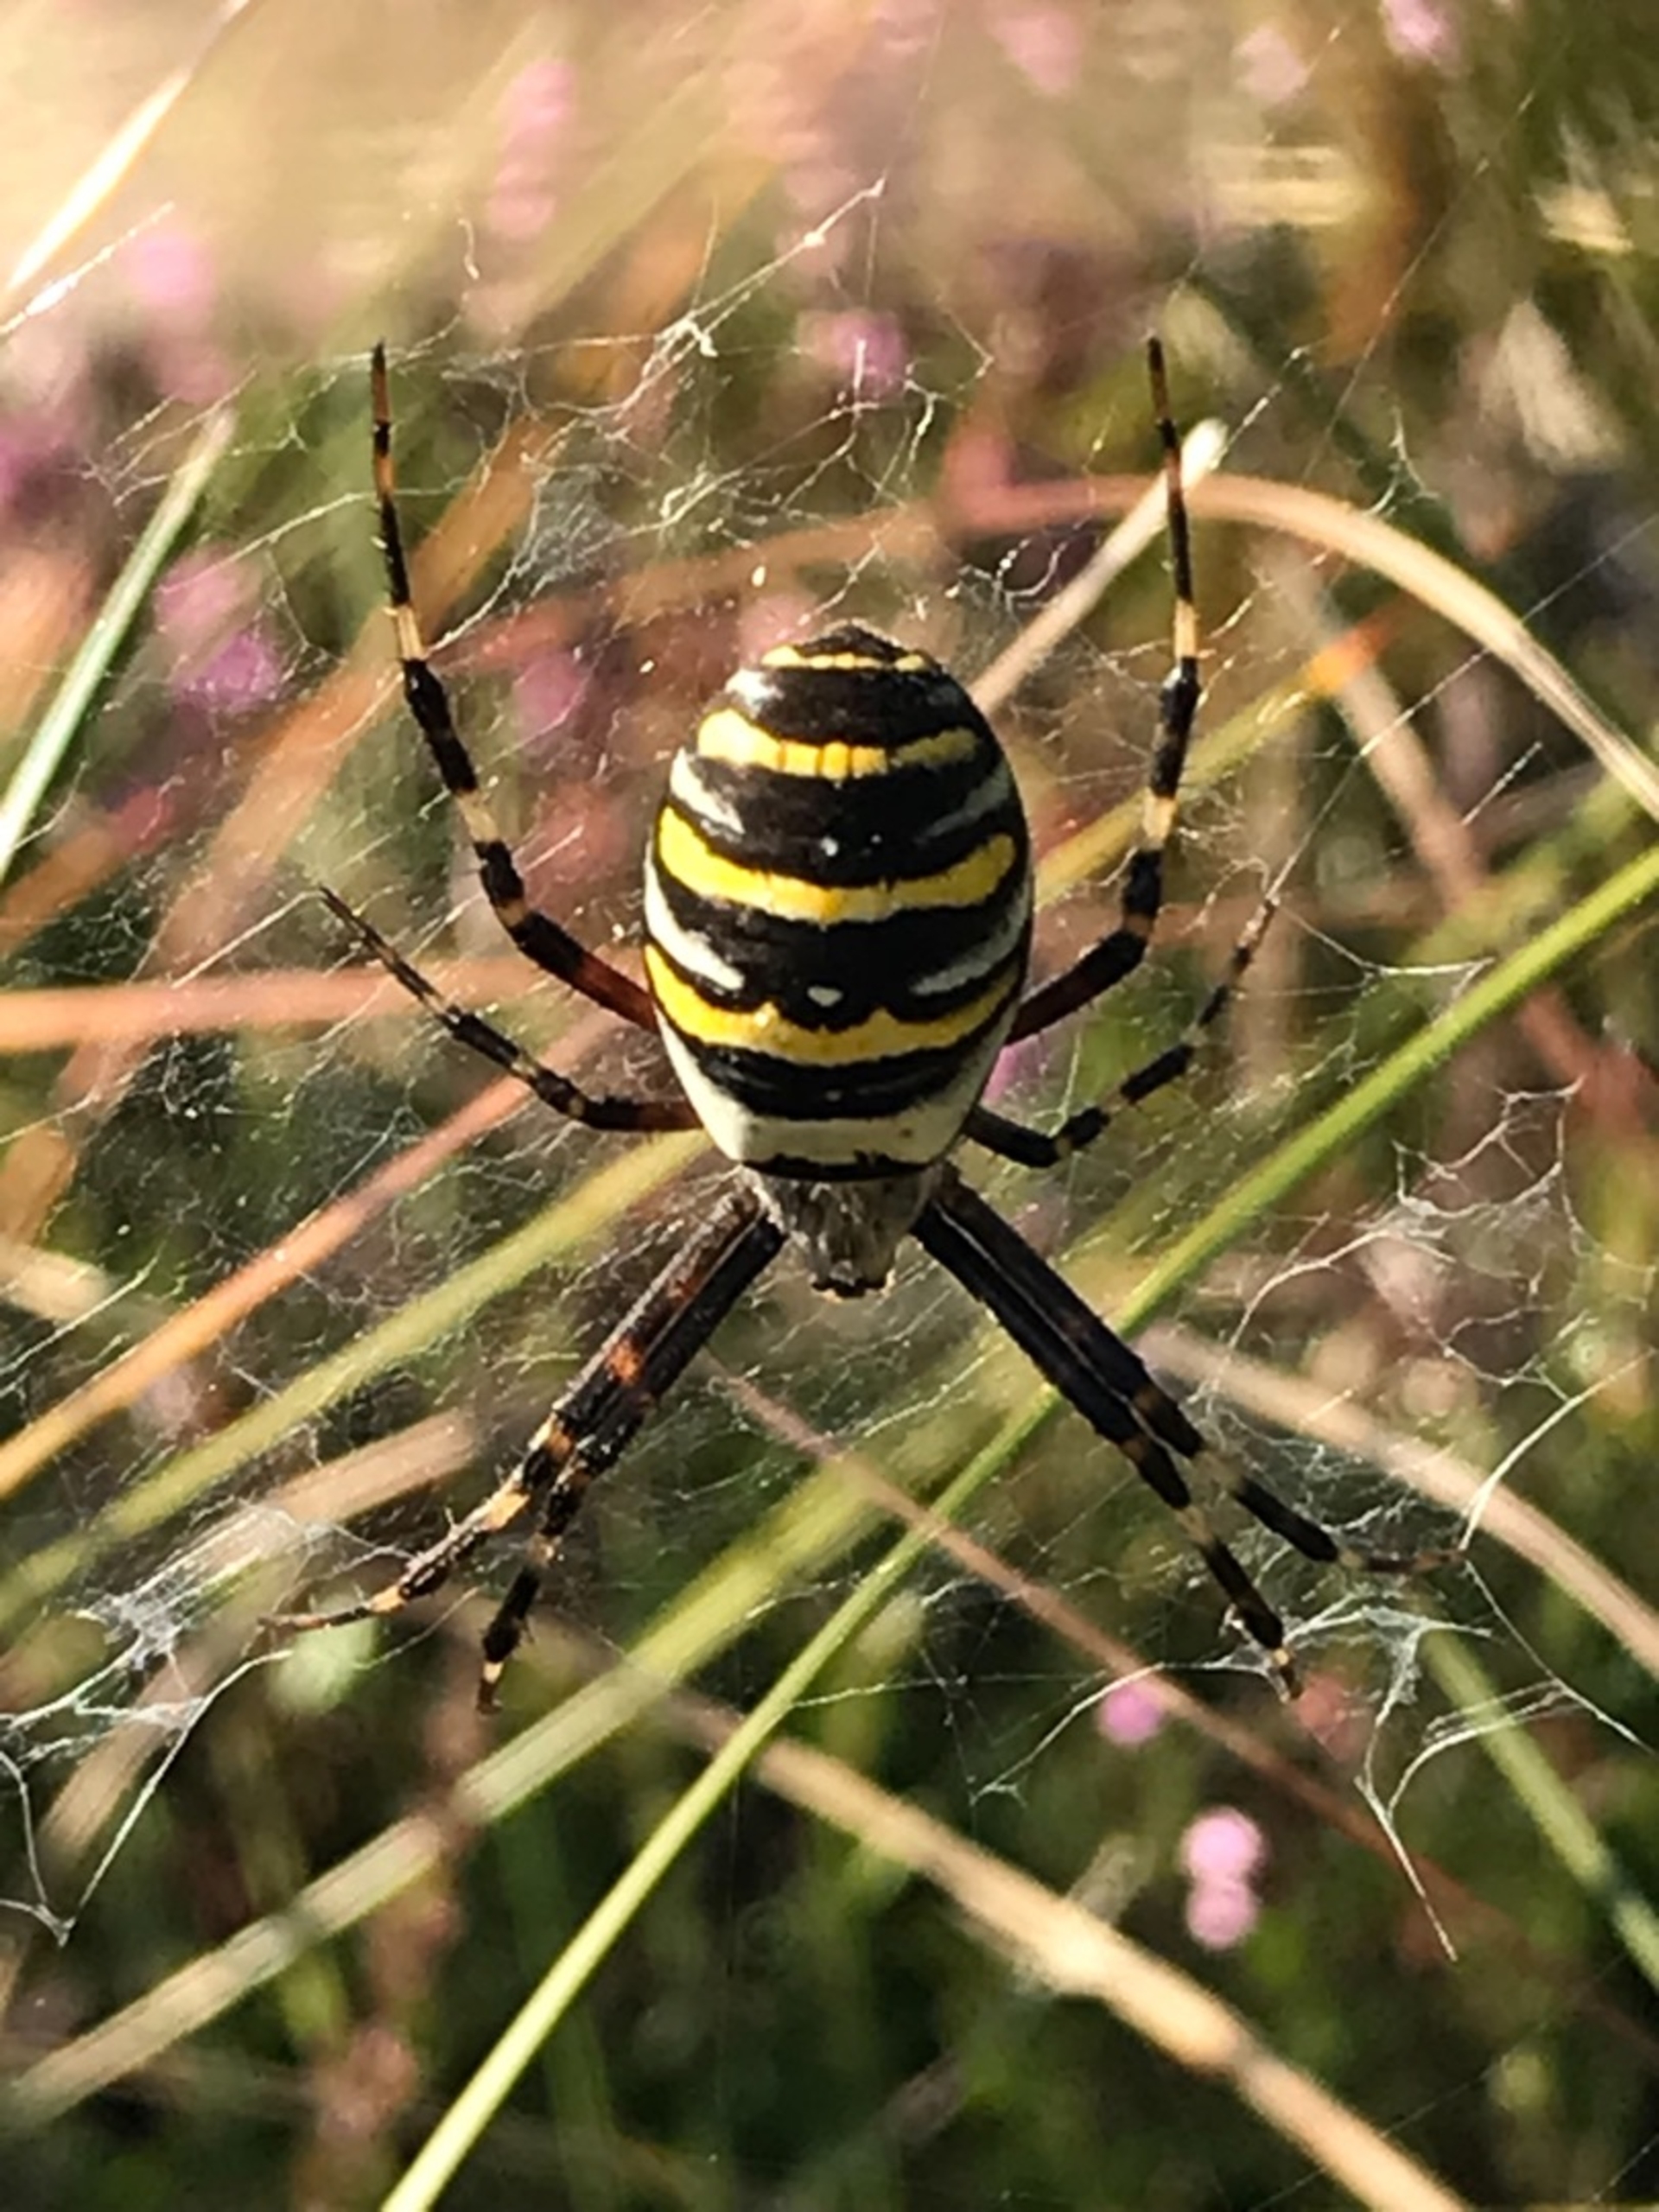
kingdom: Animalia
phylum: Arthropoda
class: Arachnida
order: Araneae
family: Araneidae
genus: Argiope
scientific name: Argiope bruennichi
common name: Hvepseedderkop
